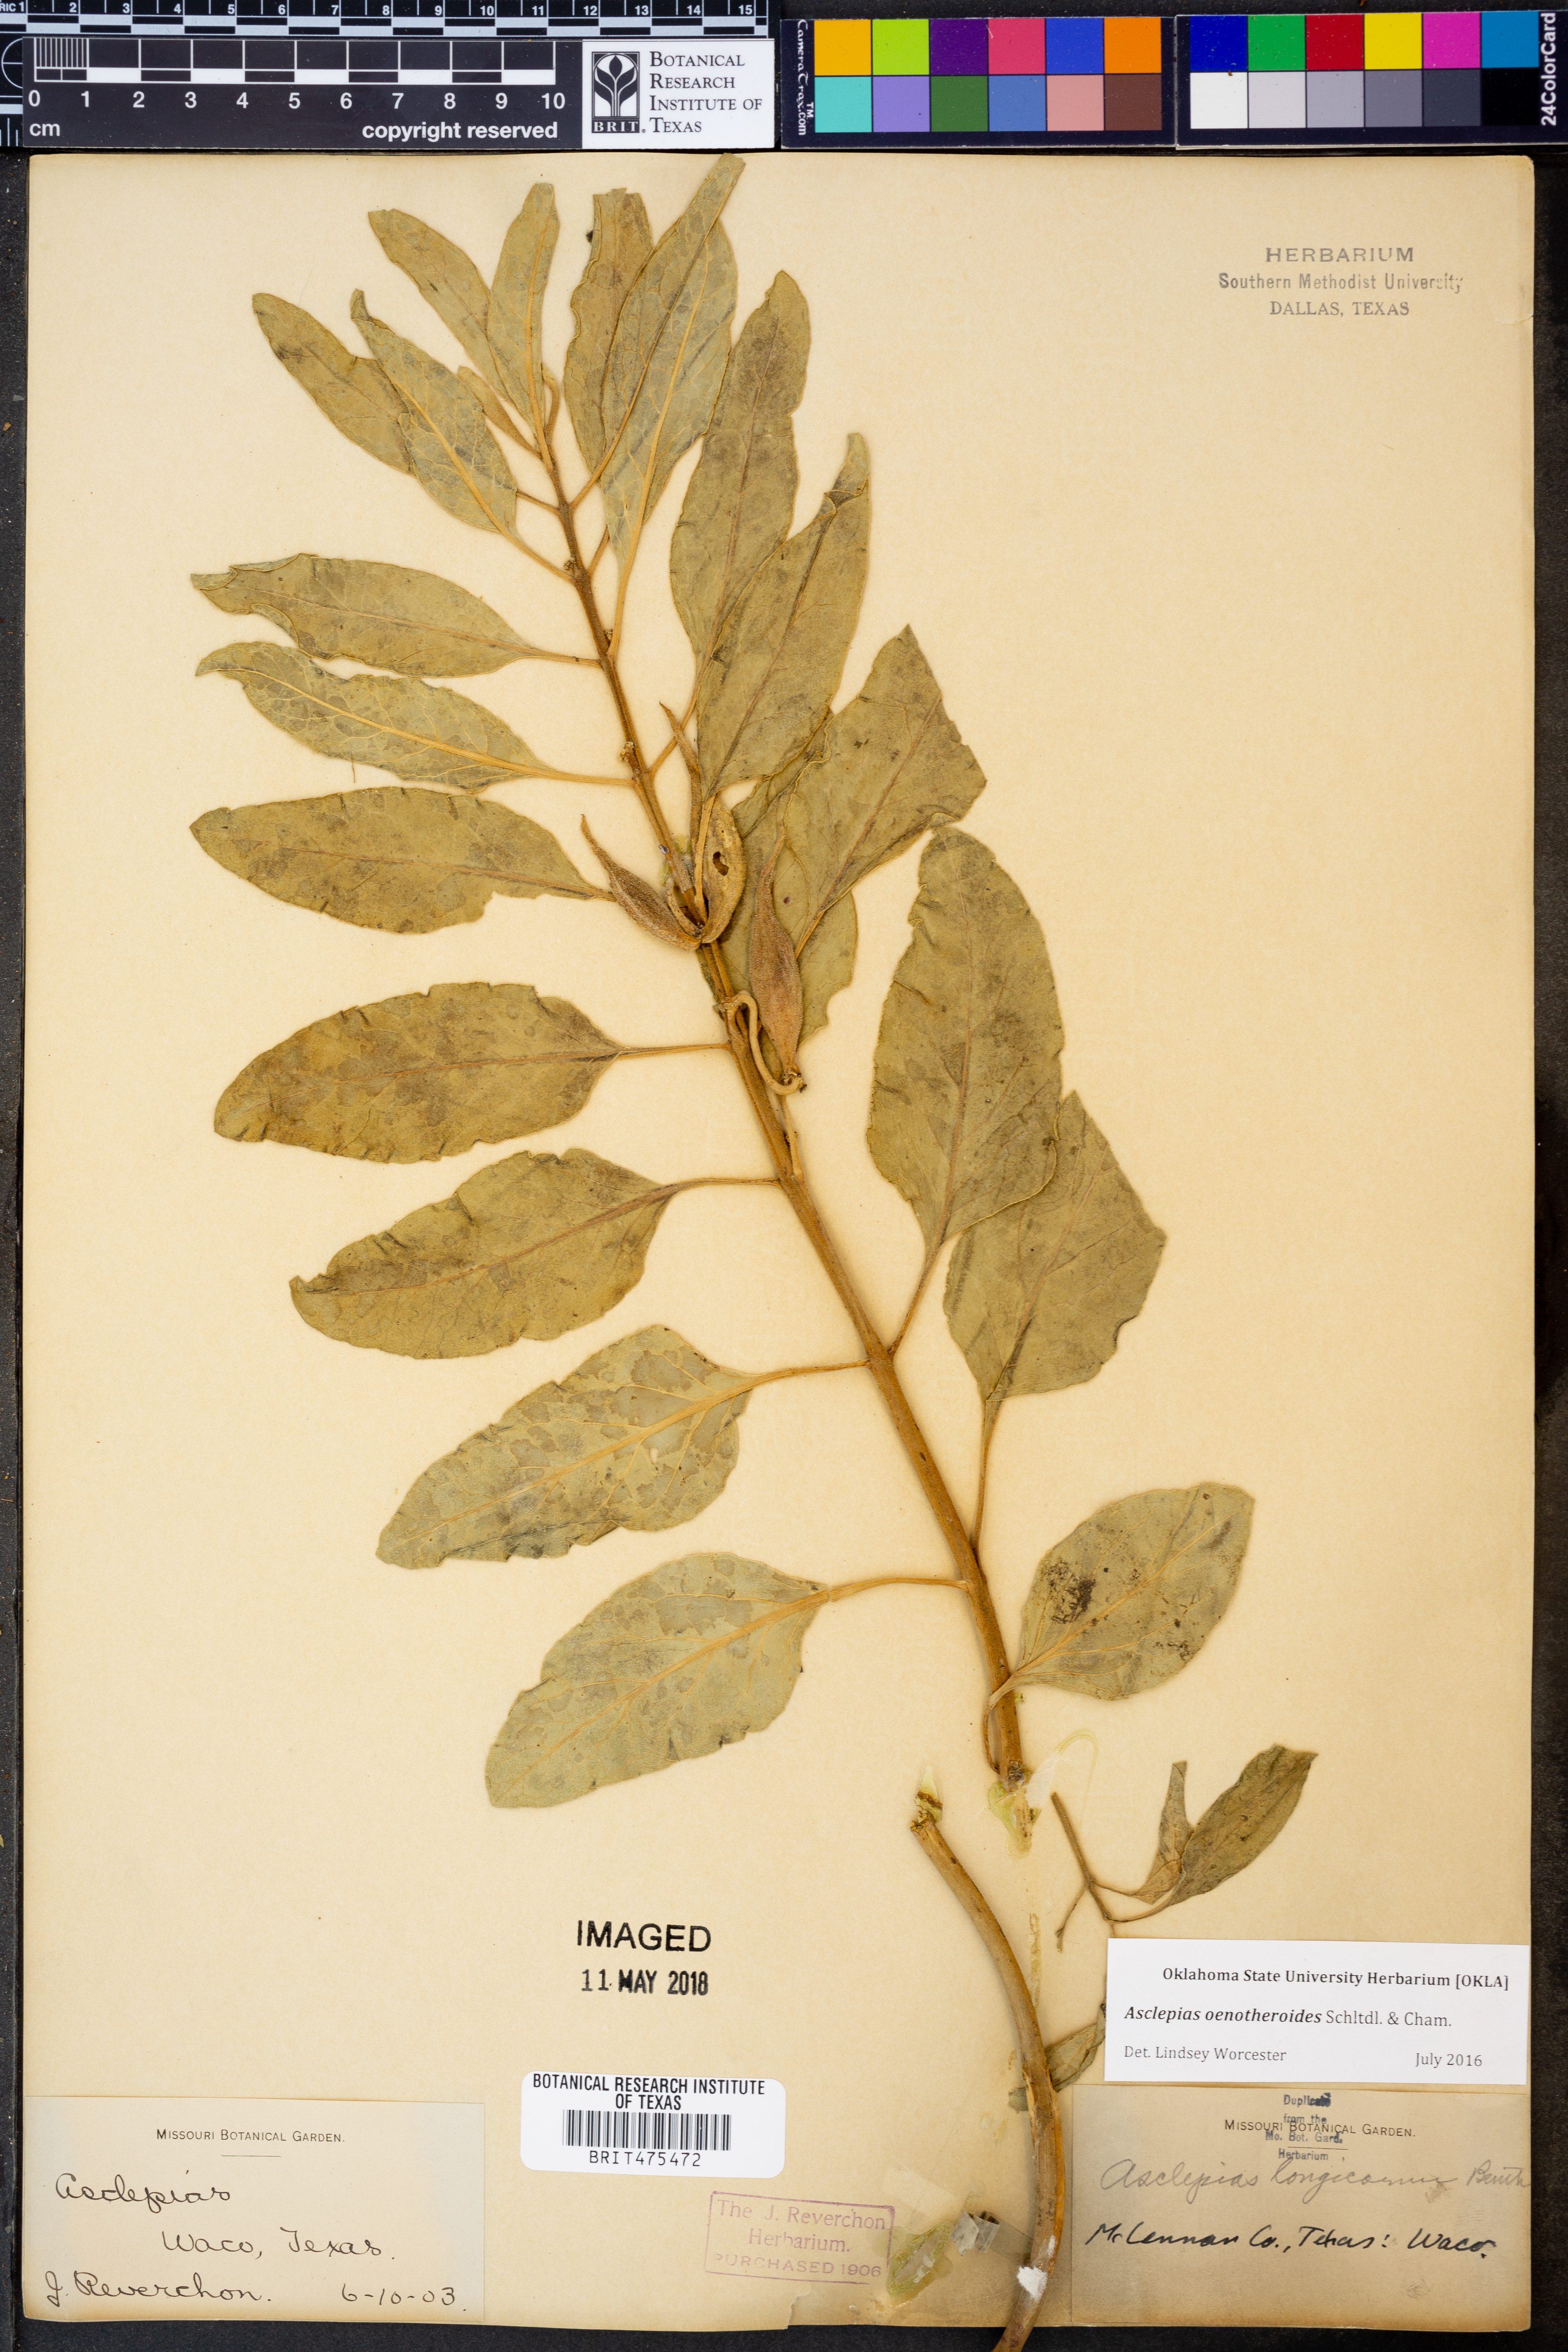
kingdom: Plantae
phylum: Tracheophyta
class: Magnoliopsida
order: Gentianales
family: Apocynaceae
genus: Asclepias
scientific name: Asclepias oenotheroides
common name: Zizotes milkweed
